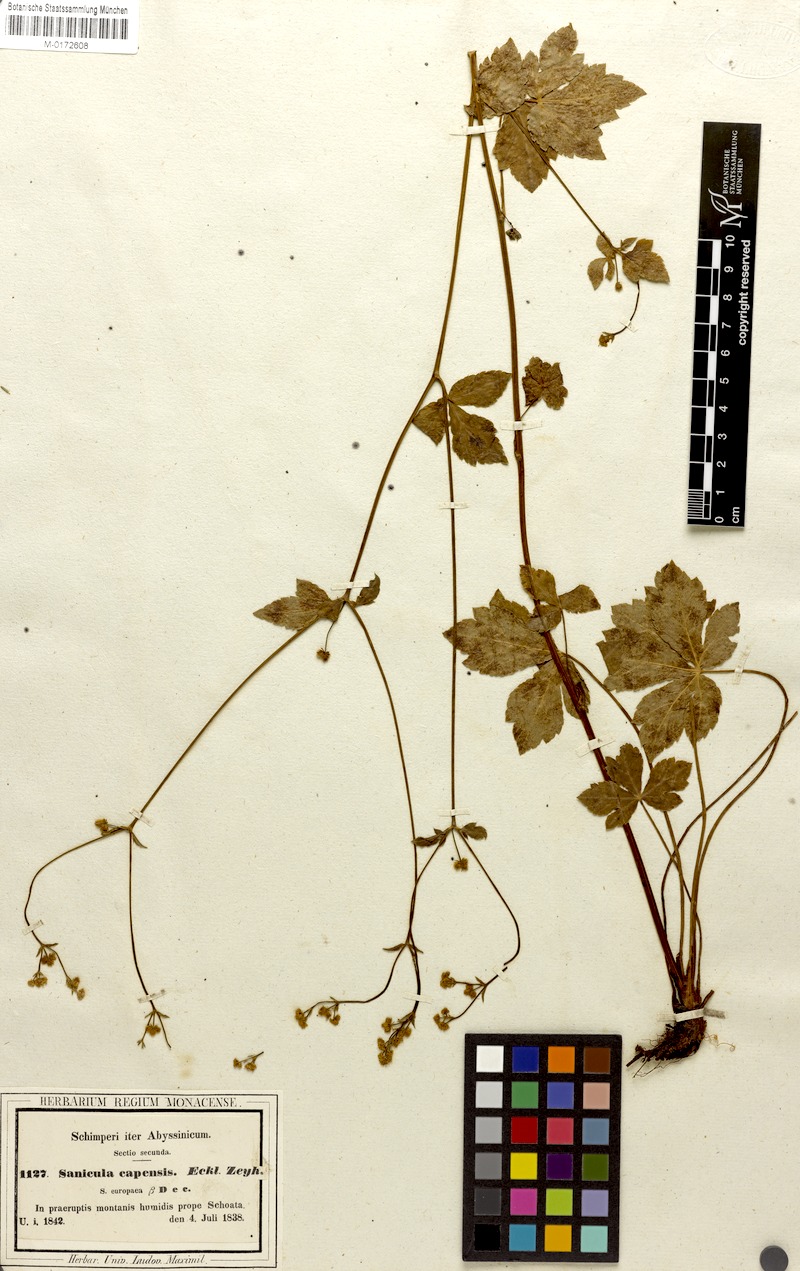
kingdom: Plantae
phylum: Tracheophyta
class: Magnoliopsida
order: Apiales
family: Apiaceae
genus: Sanicula
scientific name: Sanicula elata
